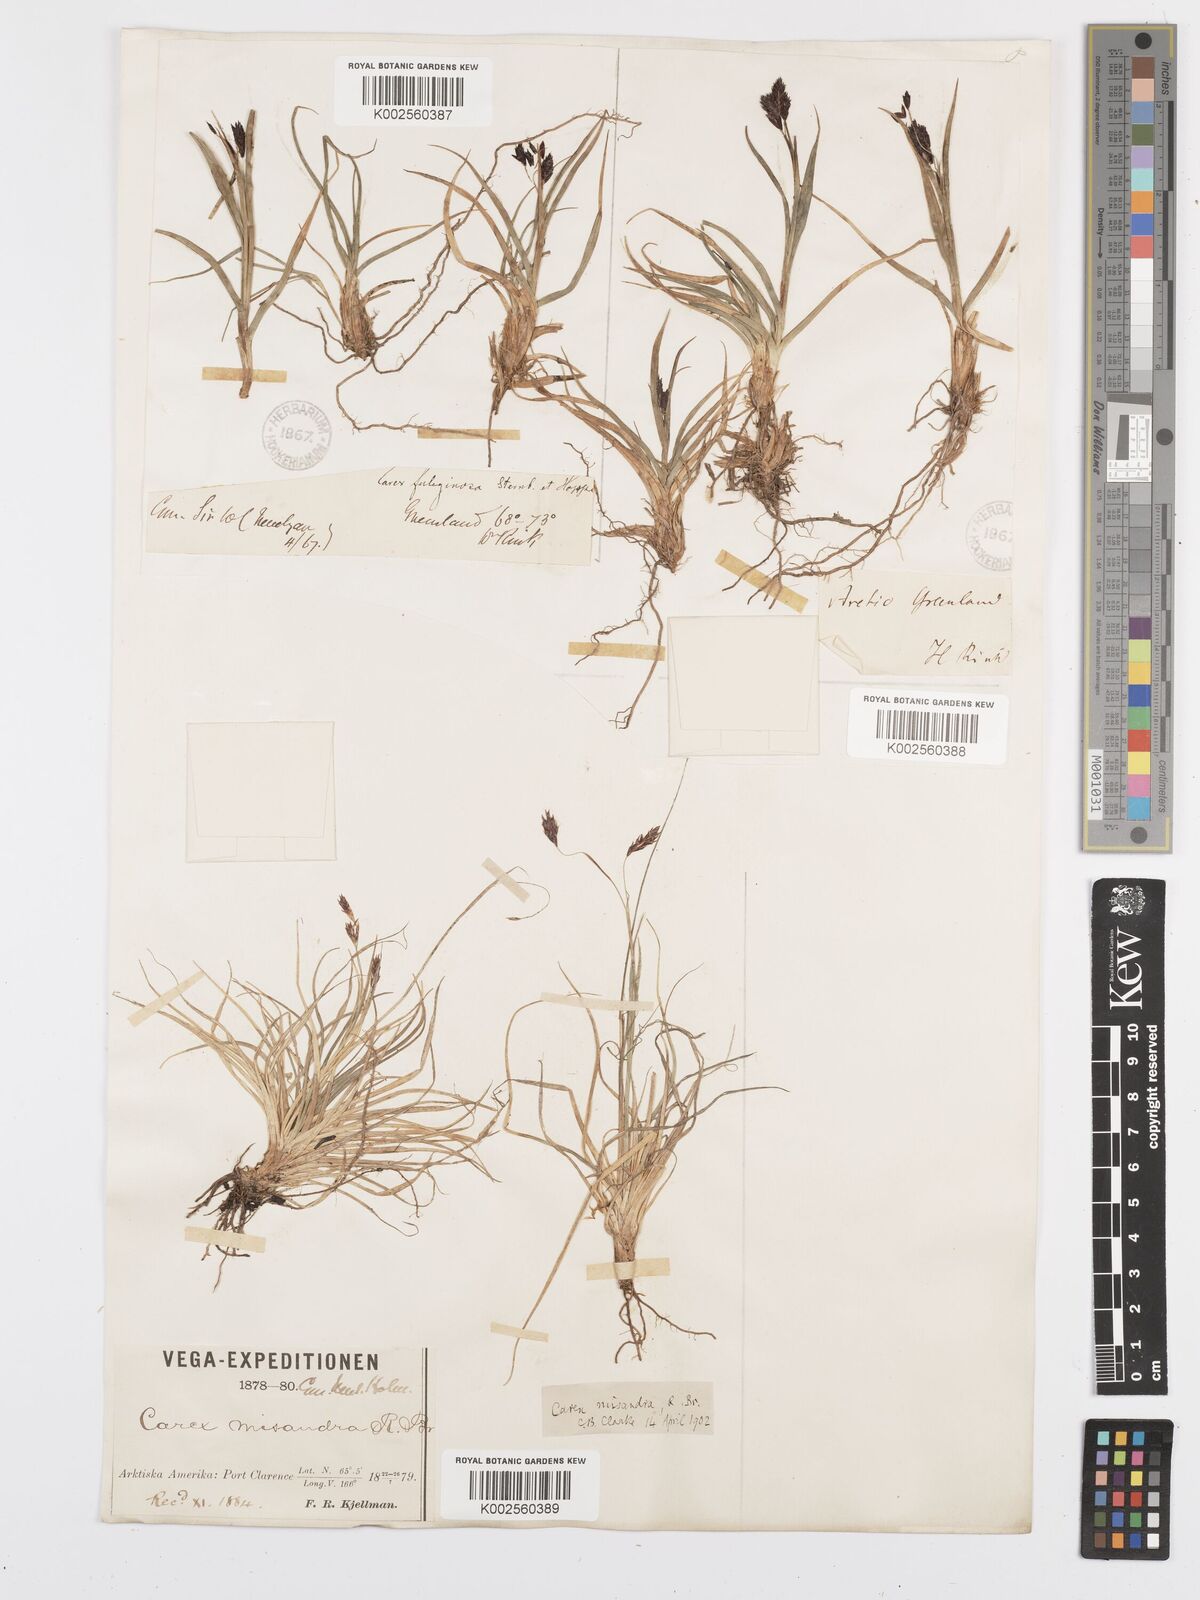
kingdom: Plantae
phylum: Tracheophyta
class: Liliopsida
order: Poales
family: Cyperaceae
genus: Carex
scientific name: Carex fuliginosa
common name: Few-flowered sedge
